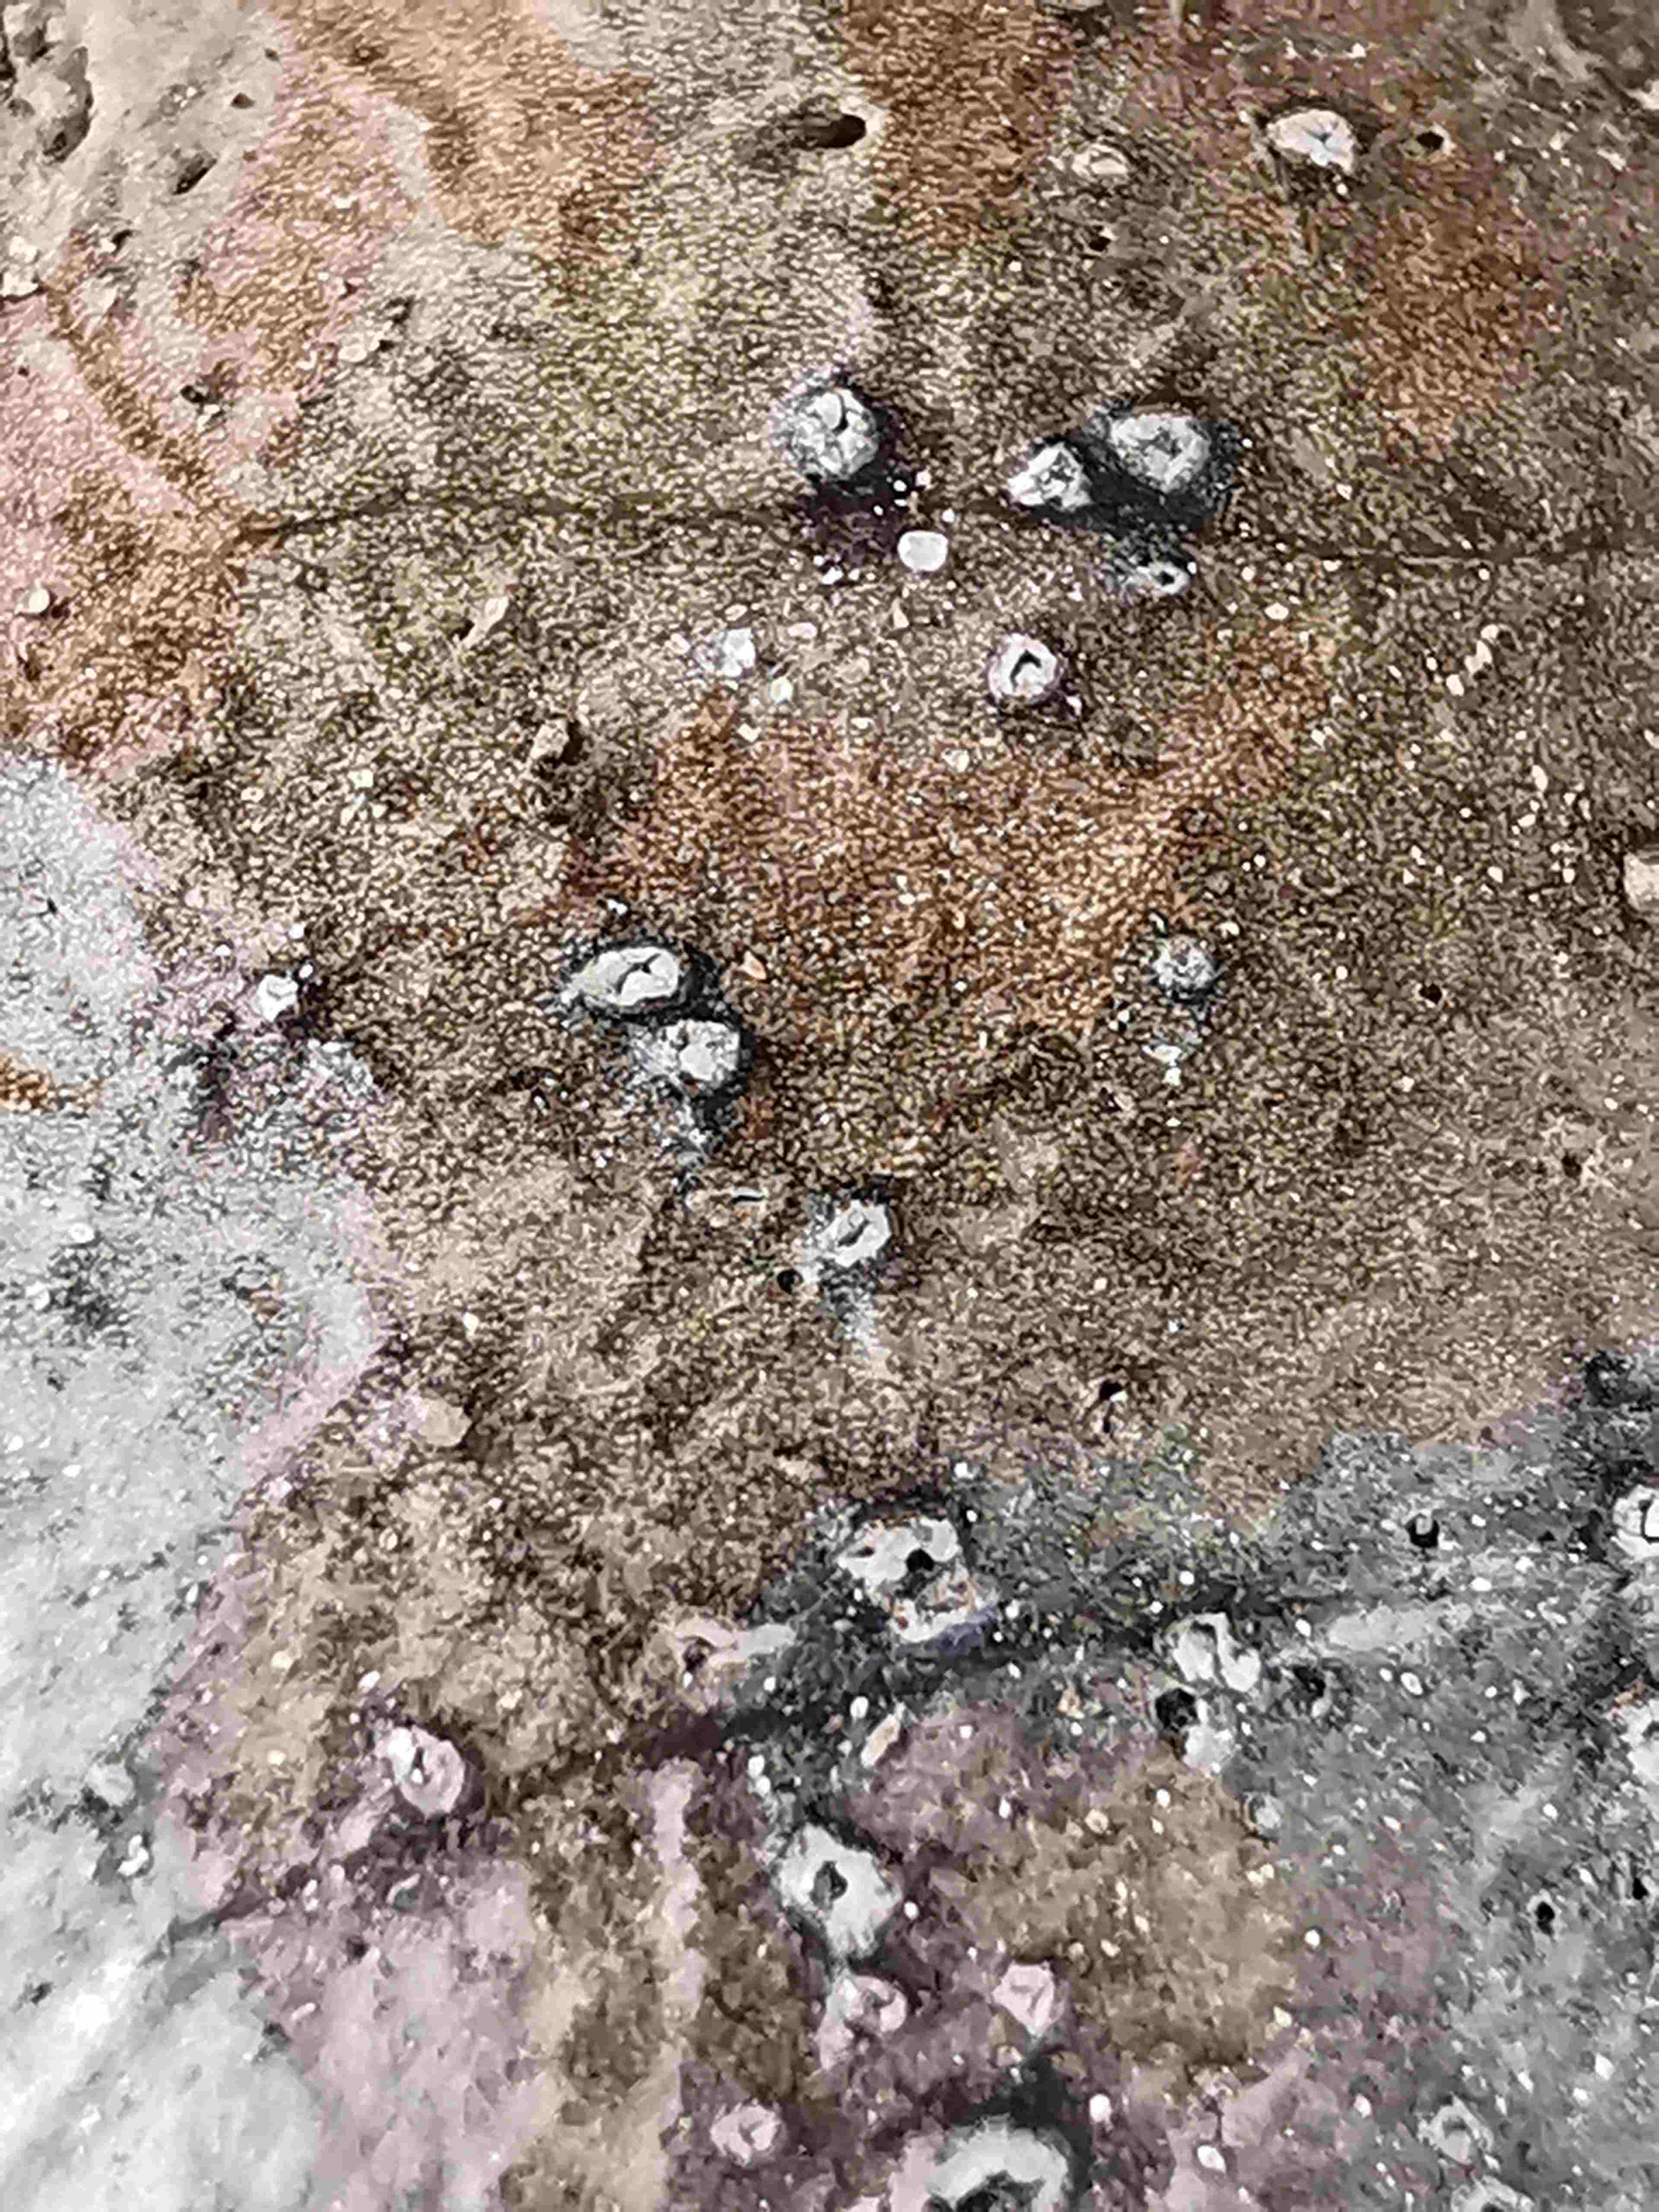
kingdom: Fungi
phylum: Ascomycota
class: Leotiomycetes
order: Phacidiales
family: Phacidiaceae
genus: Phacidium
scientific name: Phacidium lauri
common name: kristtorn-tandskive
